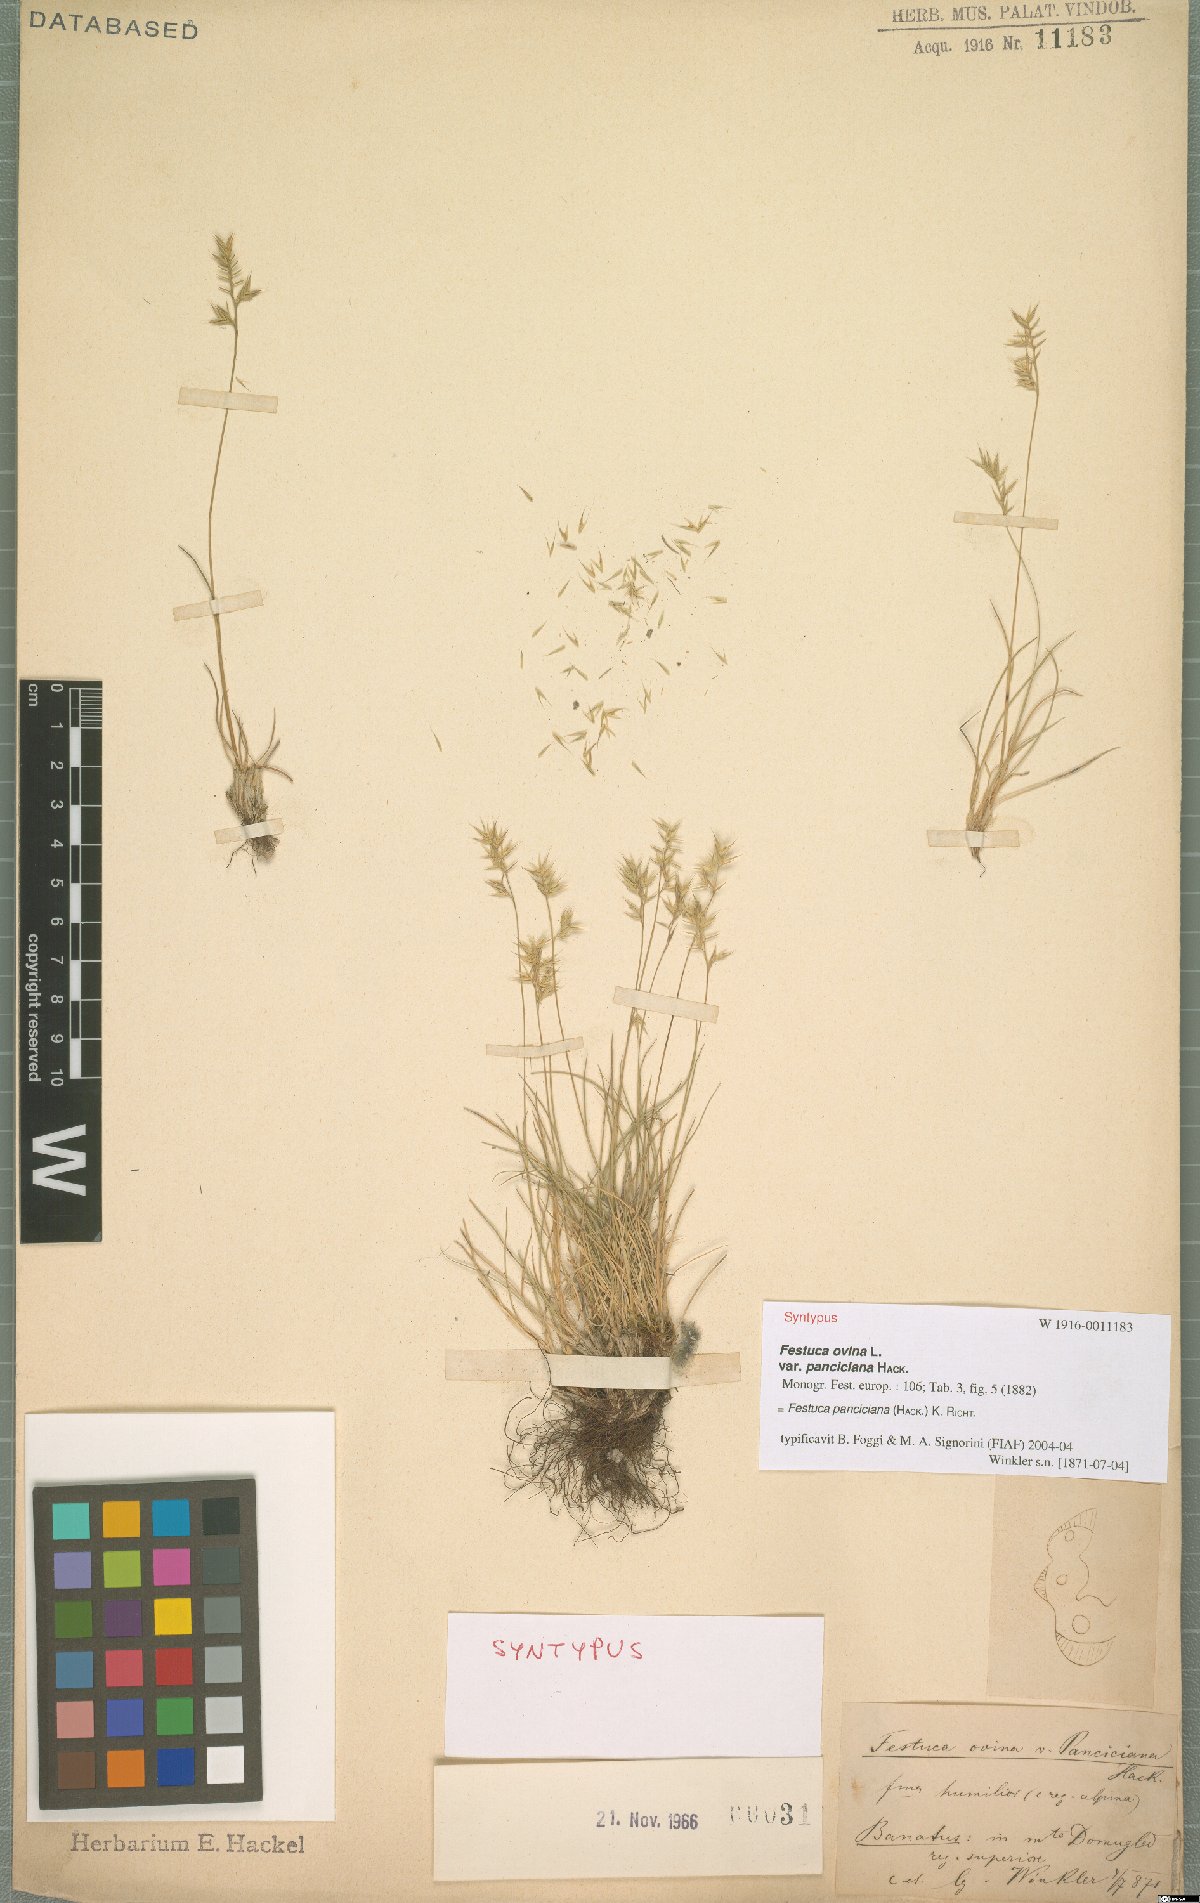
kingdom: Plantae
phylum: Tracheophyta
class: Liliopsida
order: Poales
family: Poaceae
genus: Festuca
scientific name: Festuca panciciana
